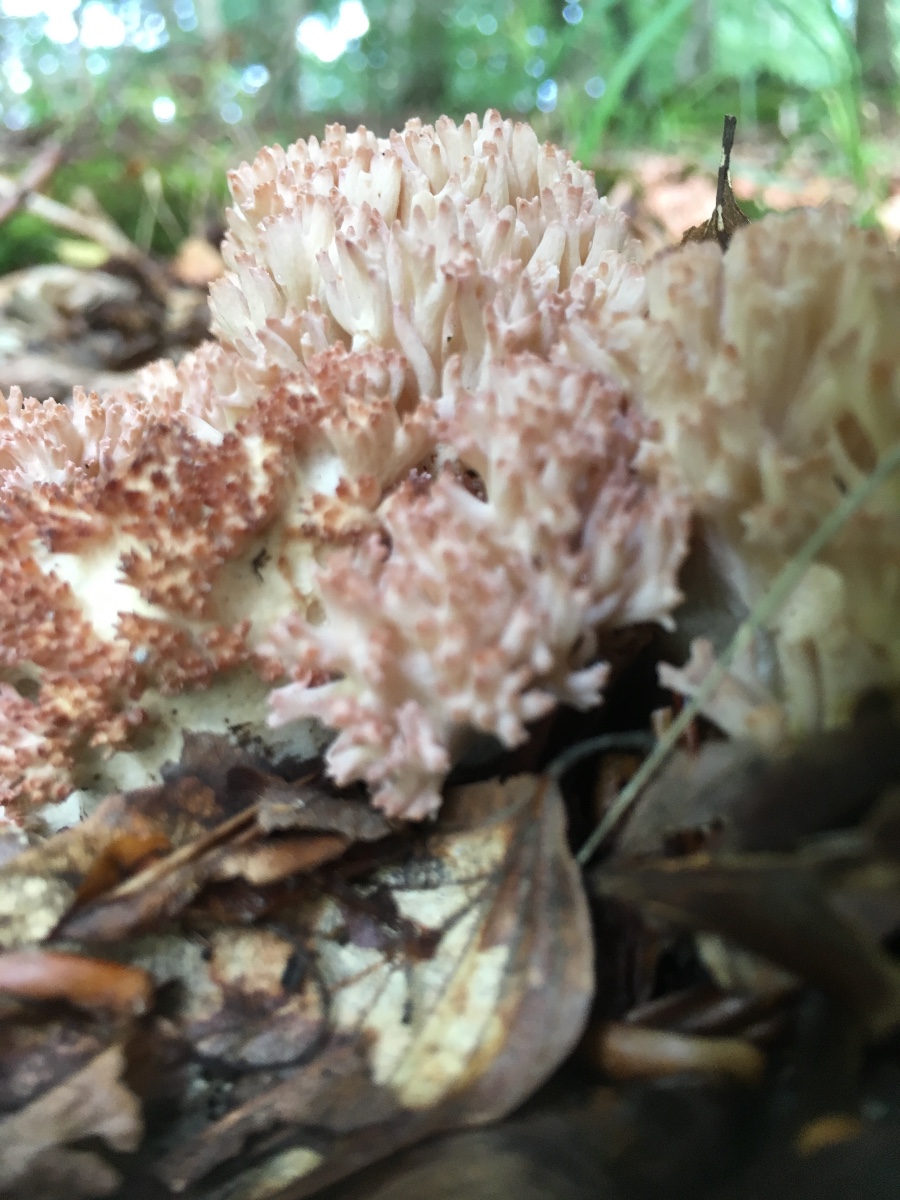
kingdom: Fungi
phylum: Basidiomycota
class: Agaricomycetes
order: Gomphales
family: Gomphaceae
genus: Ramaria
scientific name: Ramaria botrytis
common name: drue-koralsvamp
